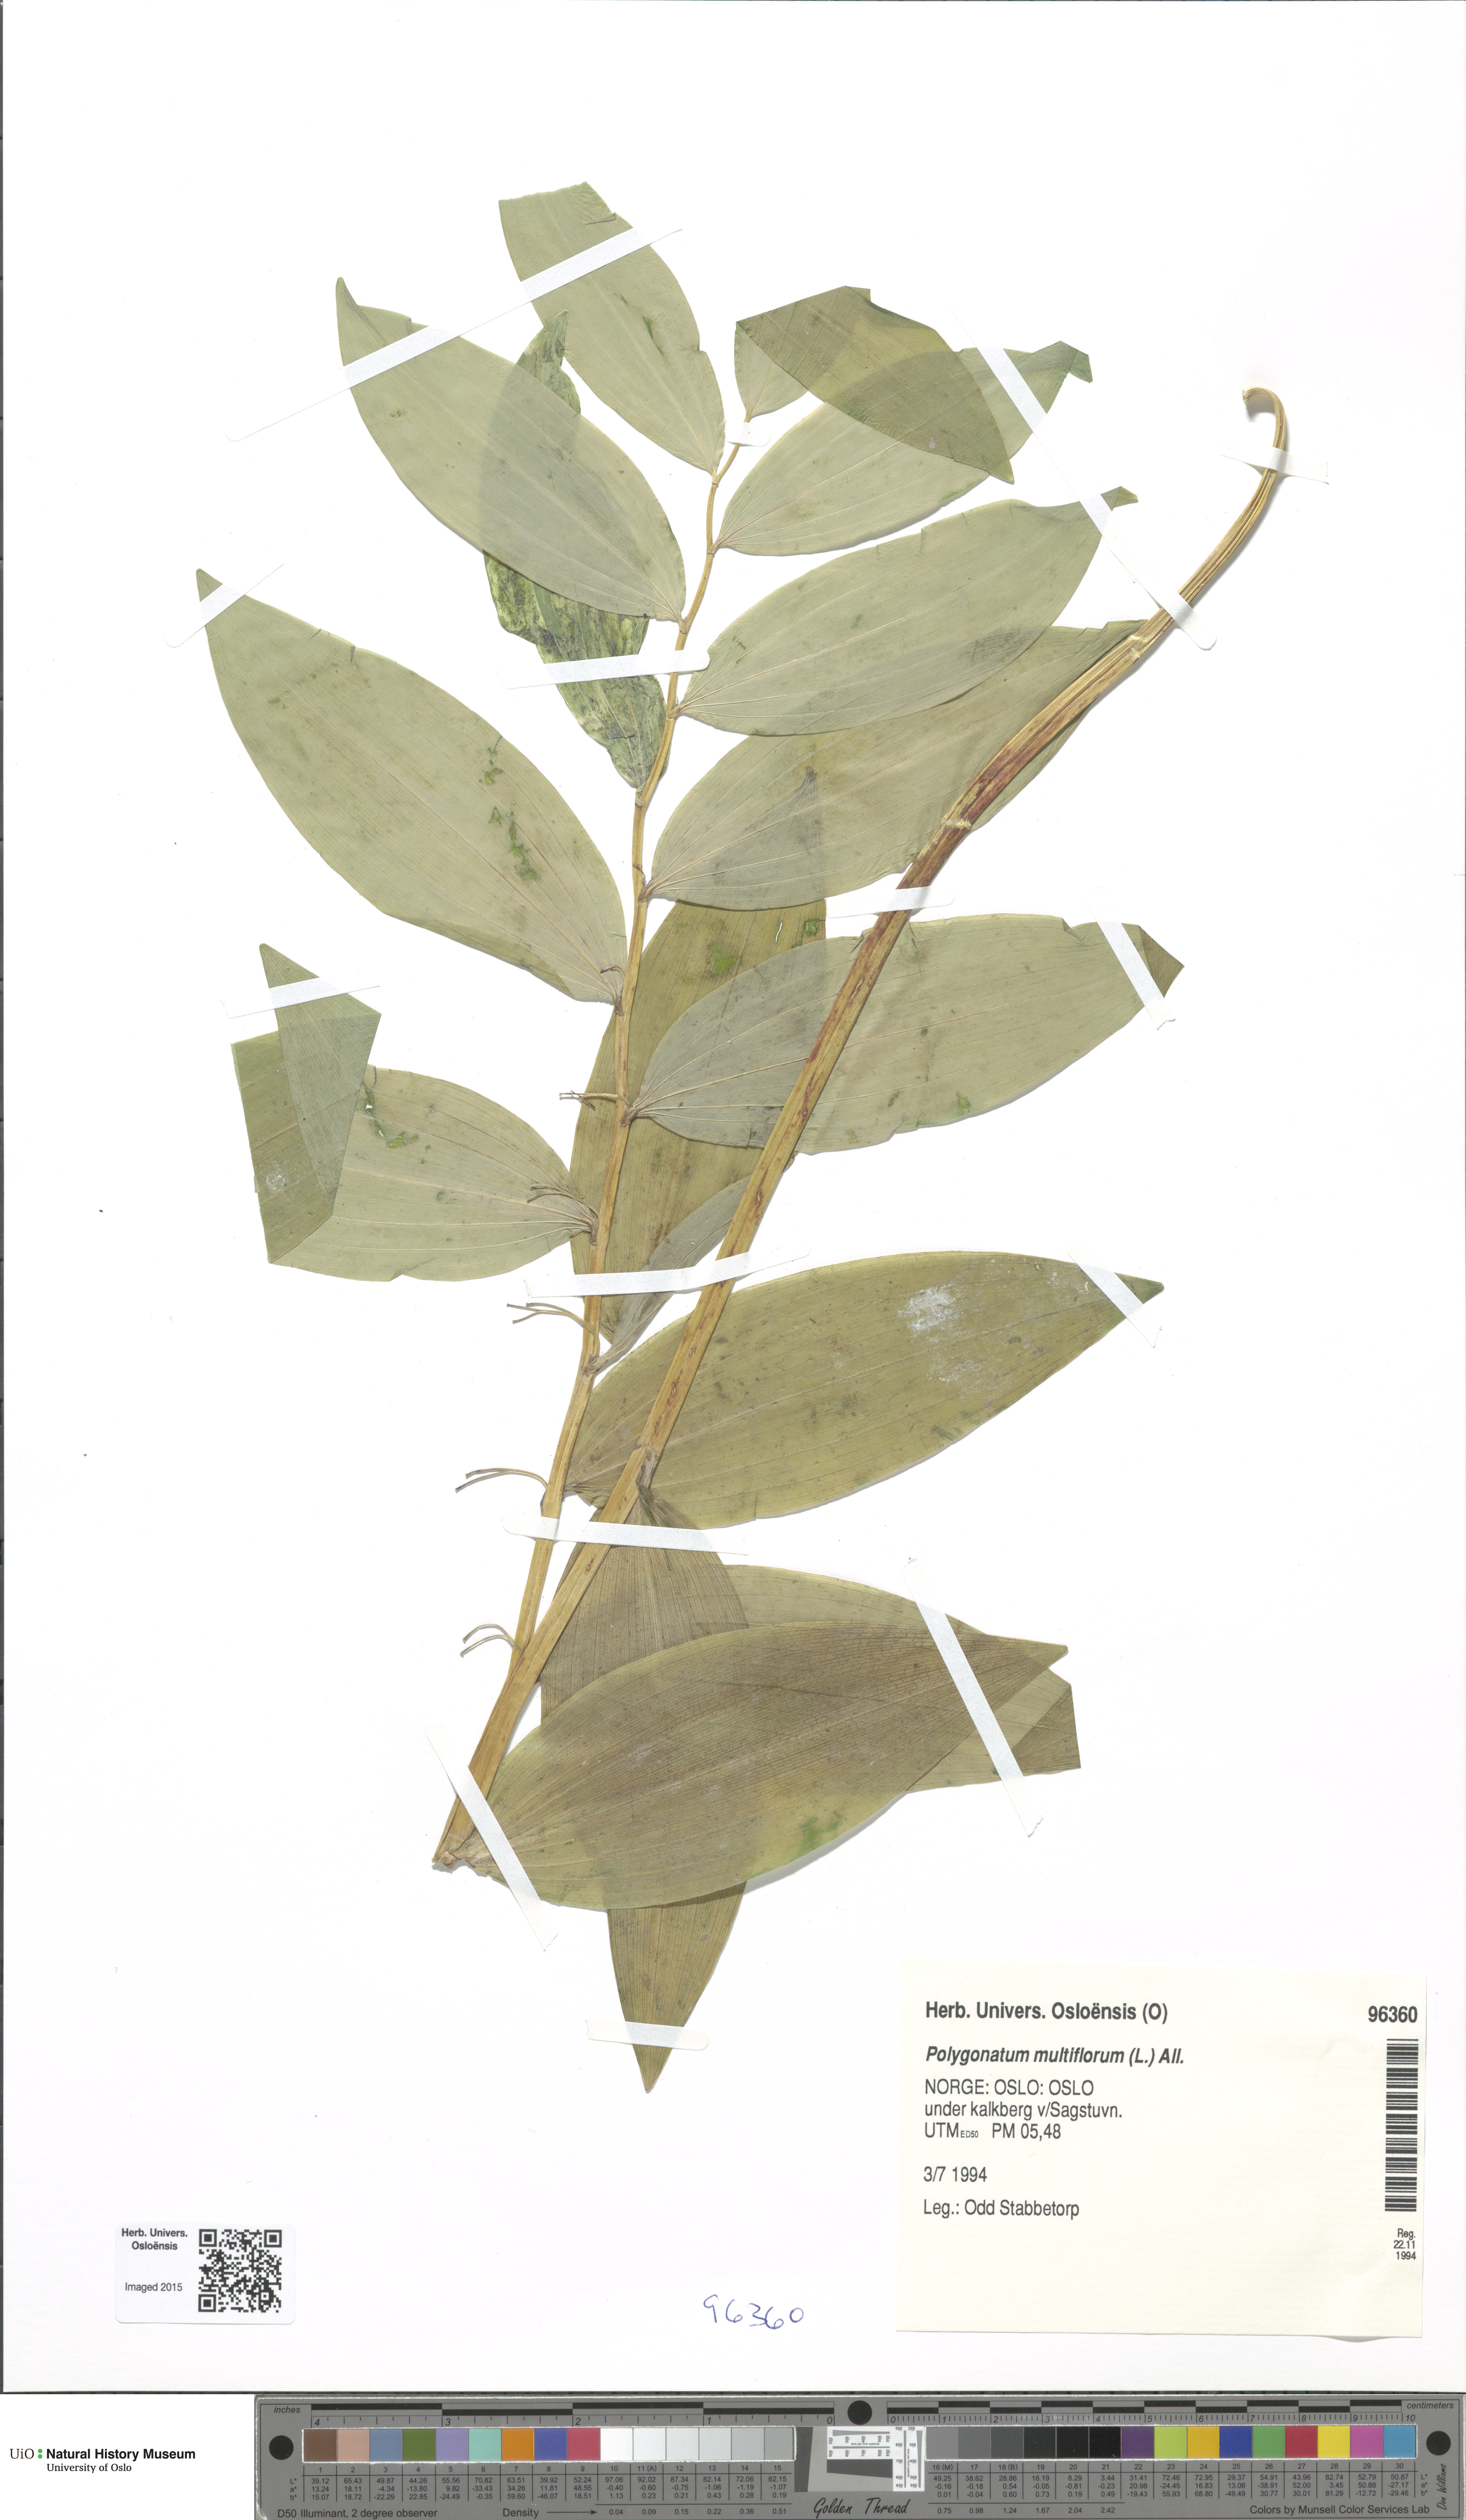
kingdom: Plantae
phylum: Tracheophyta
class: Liliopsida
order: Asparagales
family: Asparagaceae
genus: Polygonatum
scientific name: Polygonatum multiflorum
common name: Solomon's-seal
